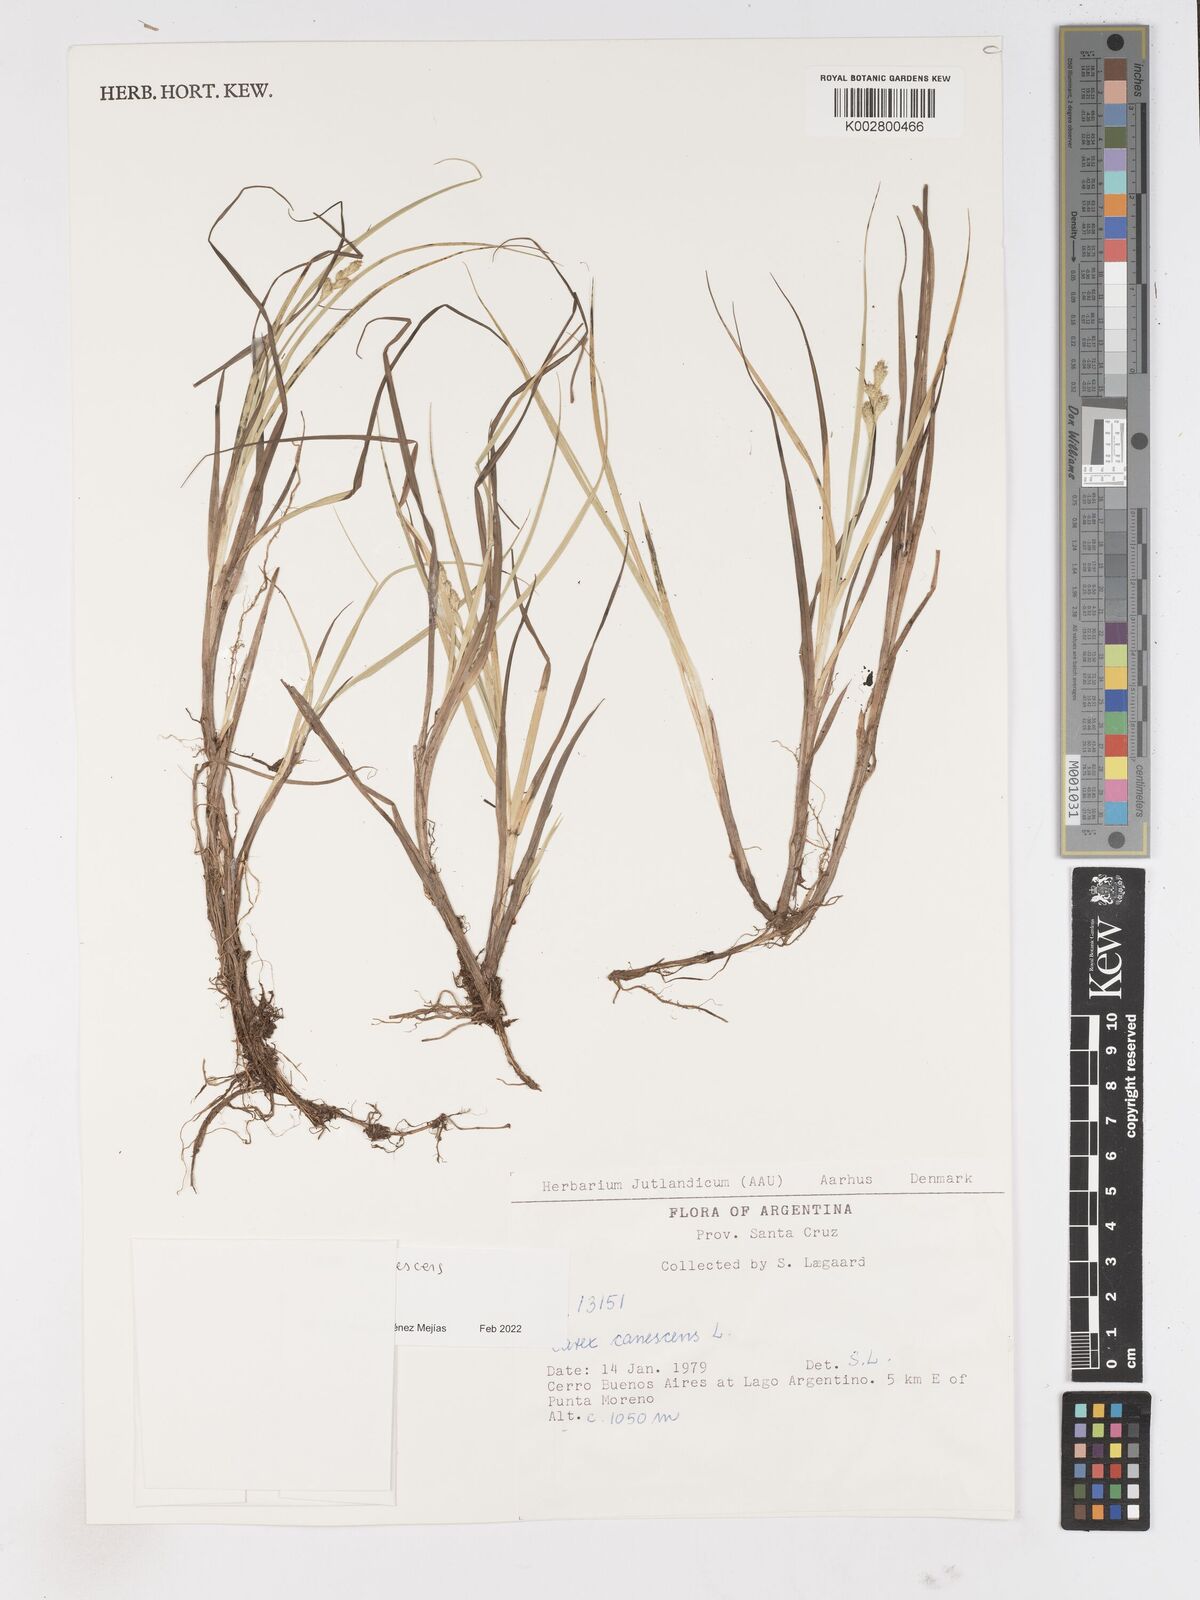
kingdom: Plantae
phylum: Tracheophyta
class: Liliopsida
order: Poales
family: Cyperaceae
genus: Carex
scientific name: Carex
